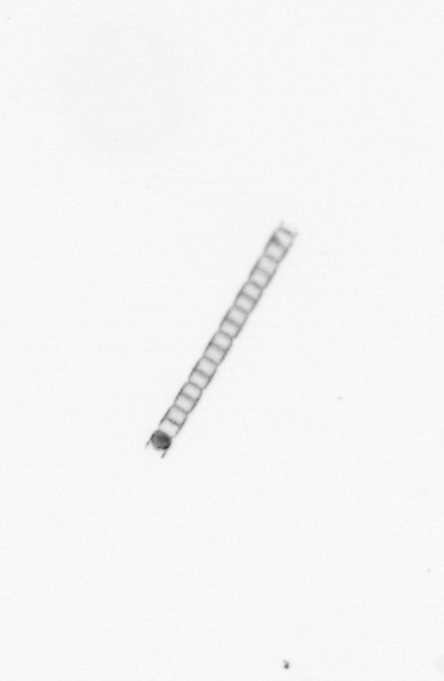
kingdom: Chromista
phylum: Ochrophyta
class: Bacillariophyceae
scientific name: Bacillariophyceae
